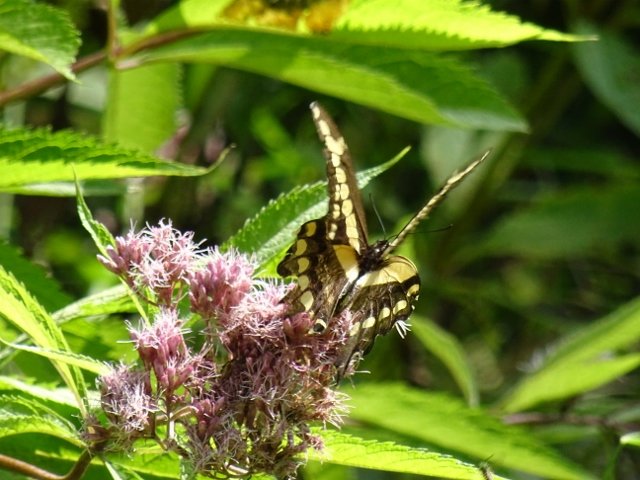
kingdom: Animalia
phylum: Arthropoda
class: Insecta
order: Lepidoptera
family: Papilionidae
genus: Papilio
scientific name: Papilio cresphontes
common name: Eastern Giant Swallowtail
